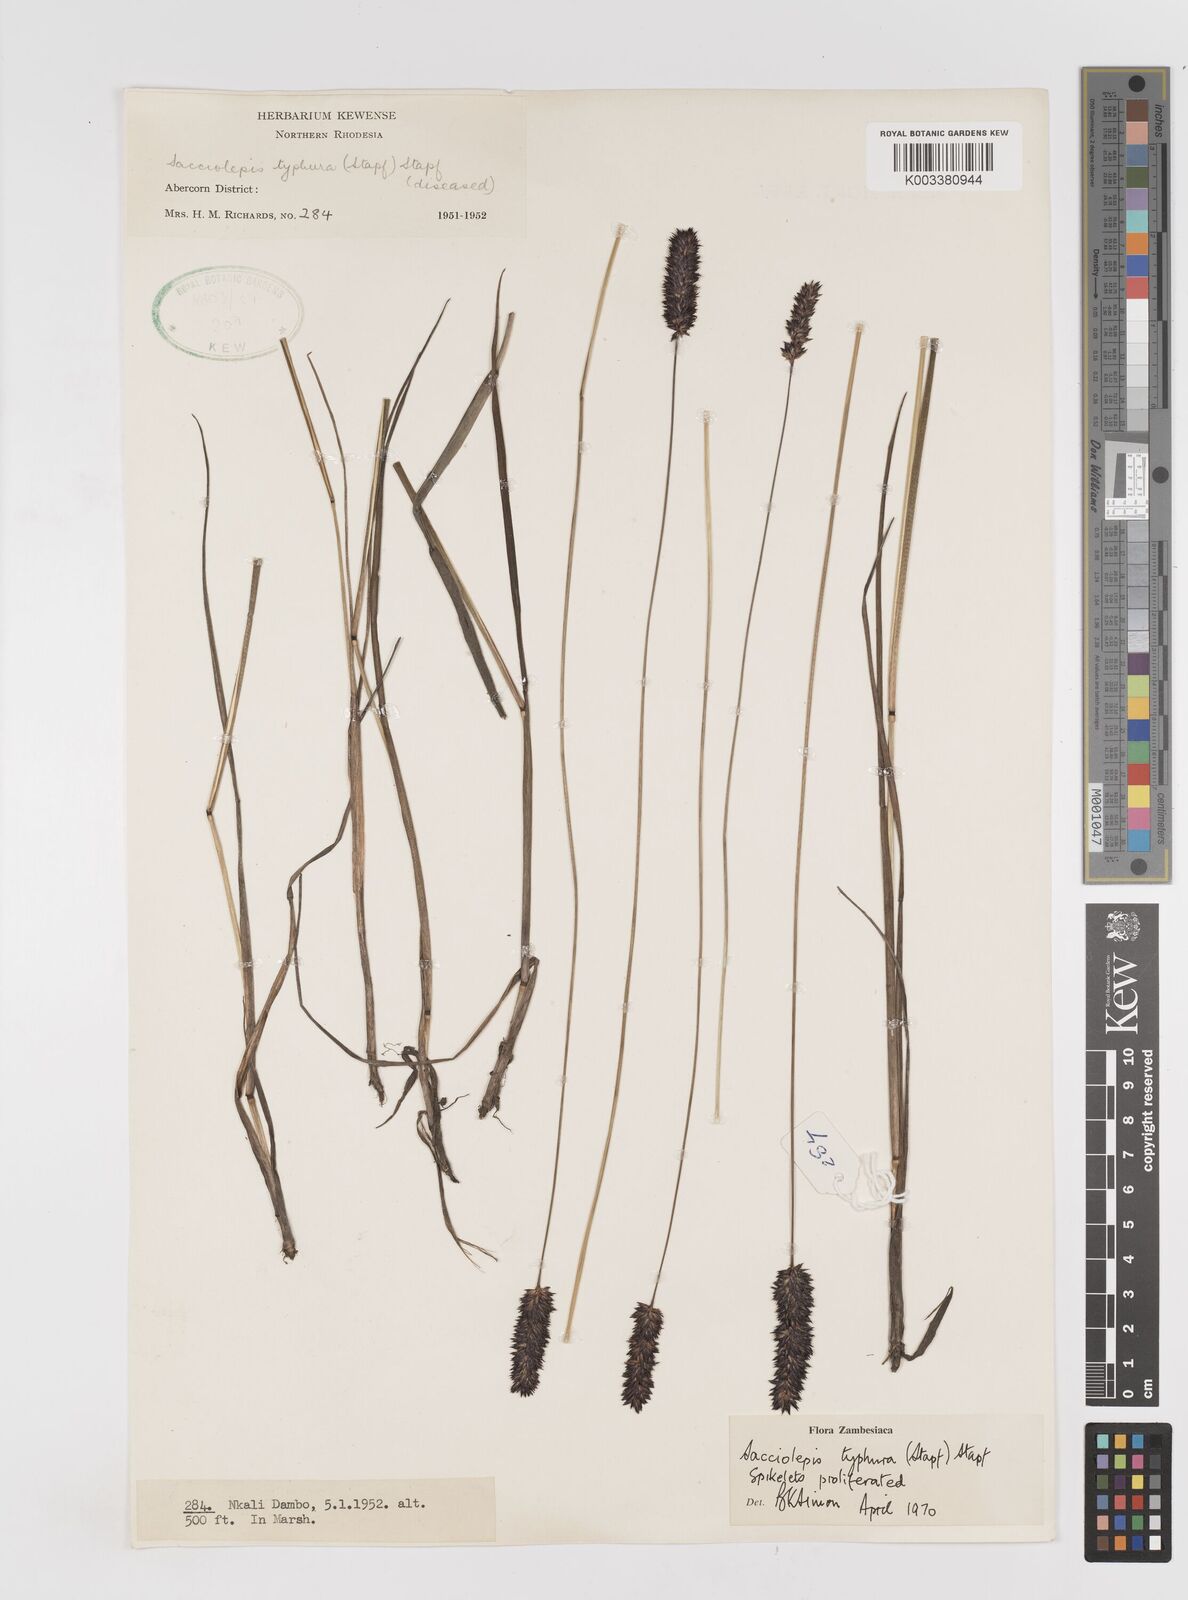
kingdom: Plantae
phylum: Tracheophyta
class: Liliopsida
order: Poales
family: Poaceae
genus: Sacciolepis
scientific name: Sacciolepis typhura
